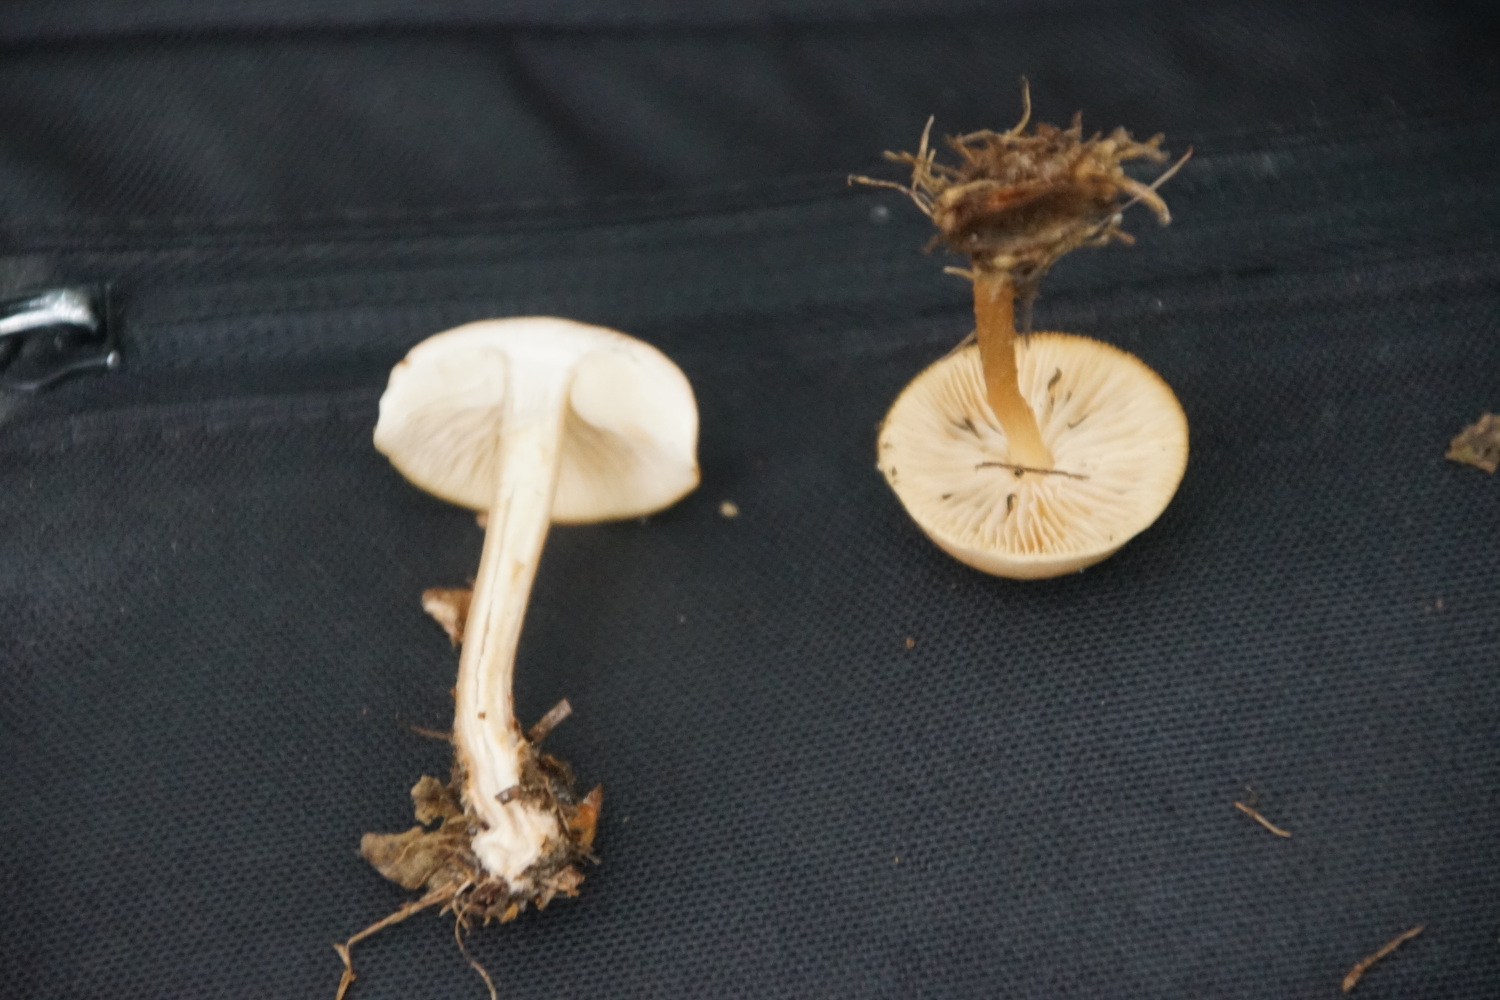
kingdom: Fungi
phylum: Basidiomycota
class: Agaricomycetes
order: Agaricales
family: Omphalotaceae
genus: Gymnopus
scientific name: Gymnopus
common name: fladhat
